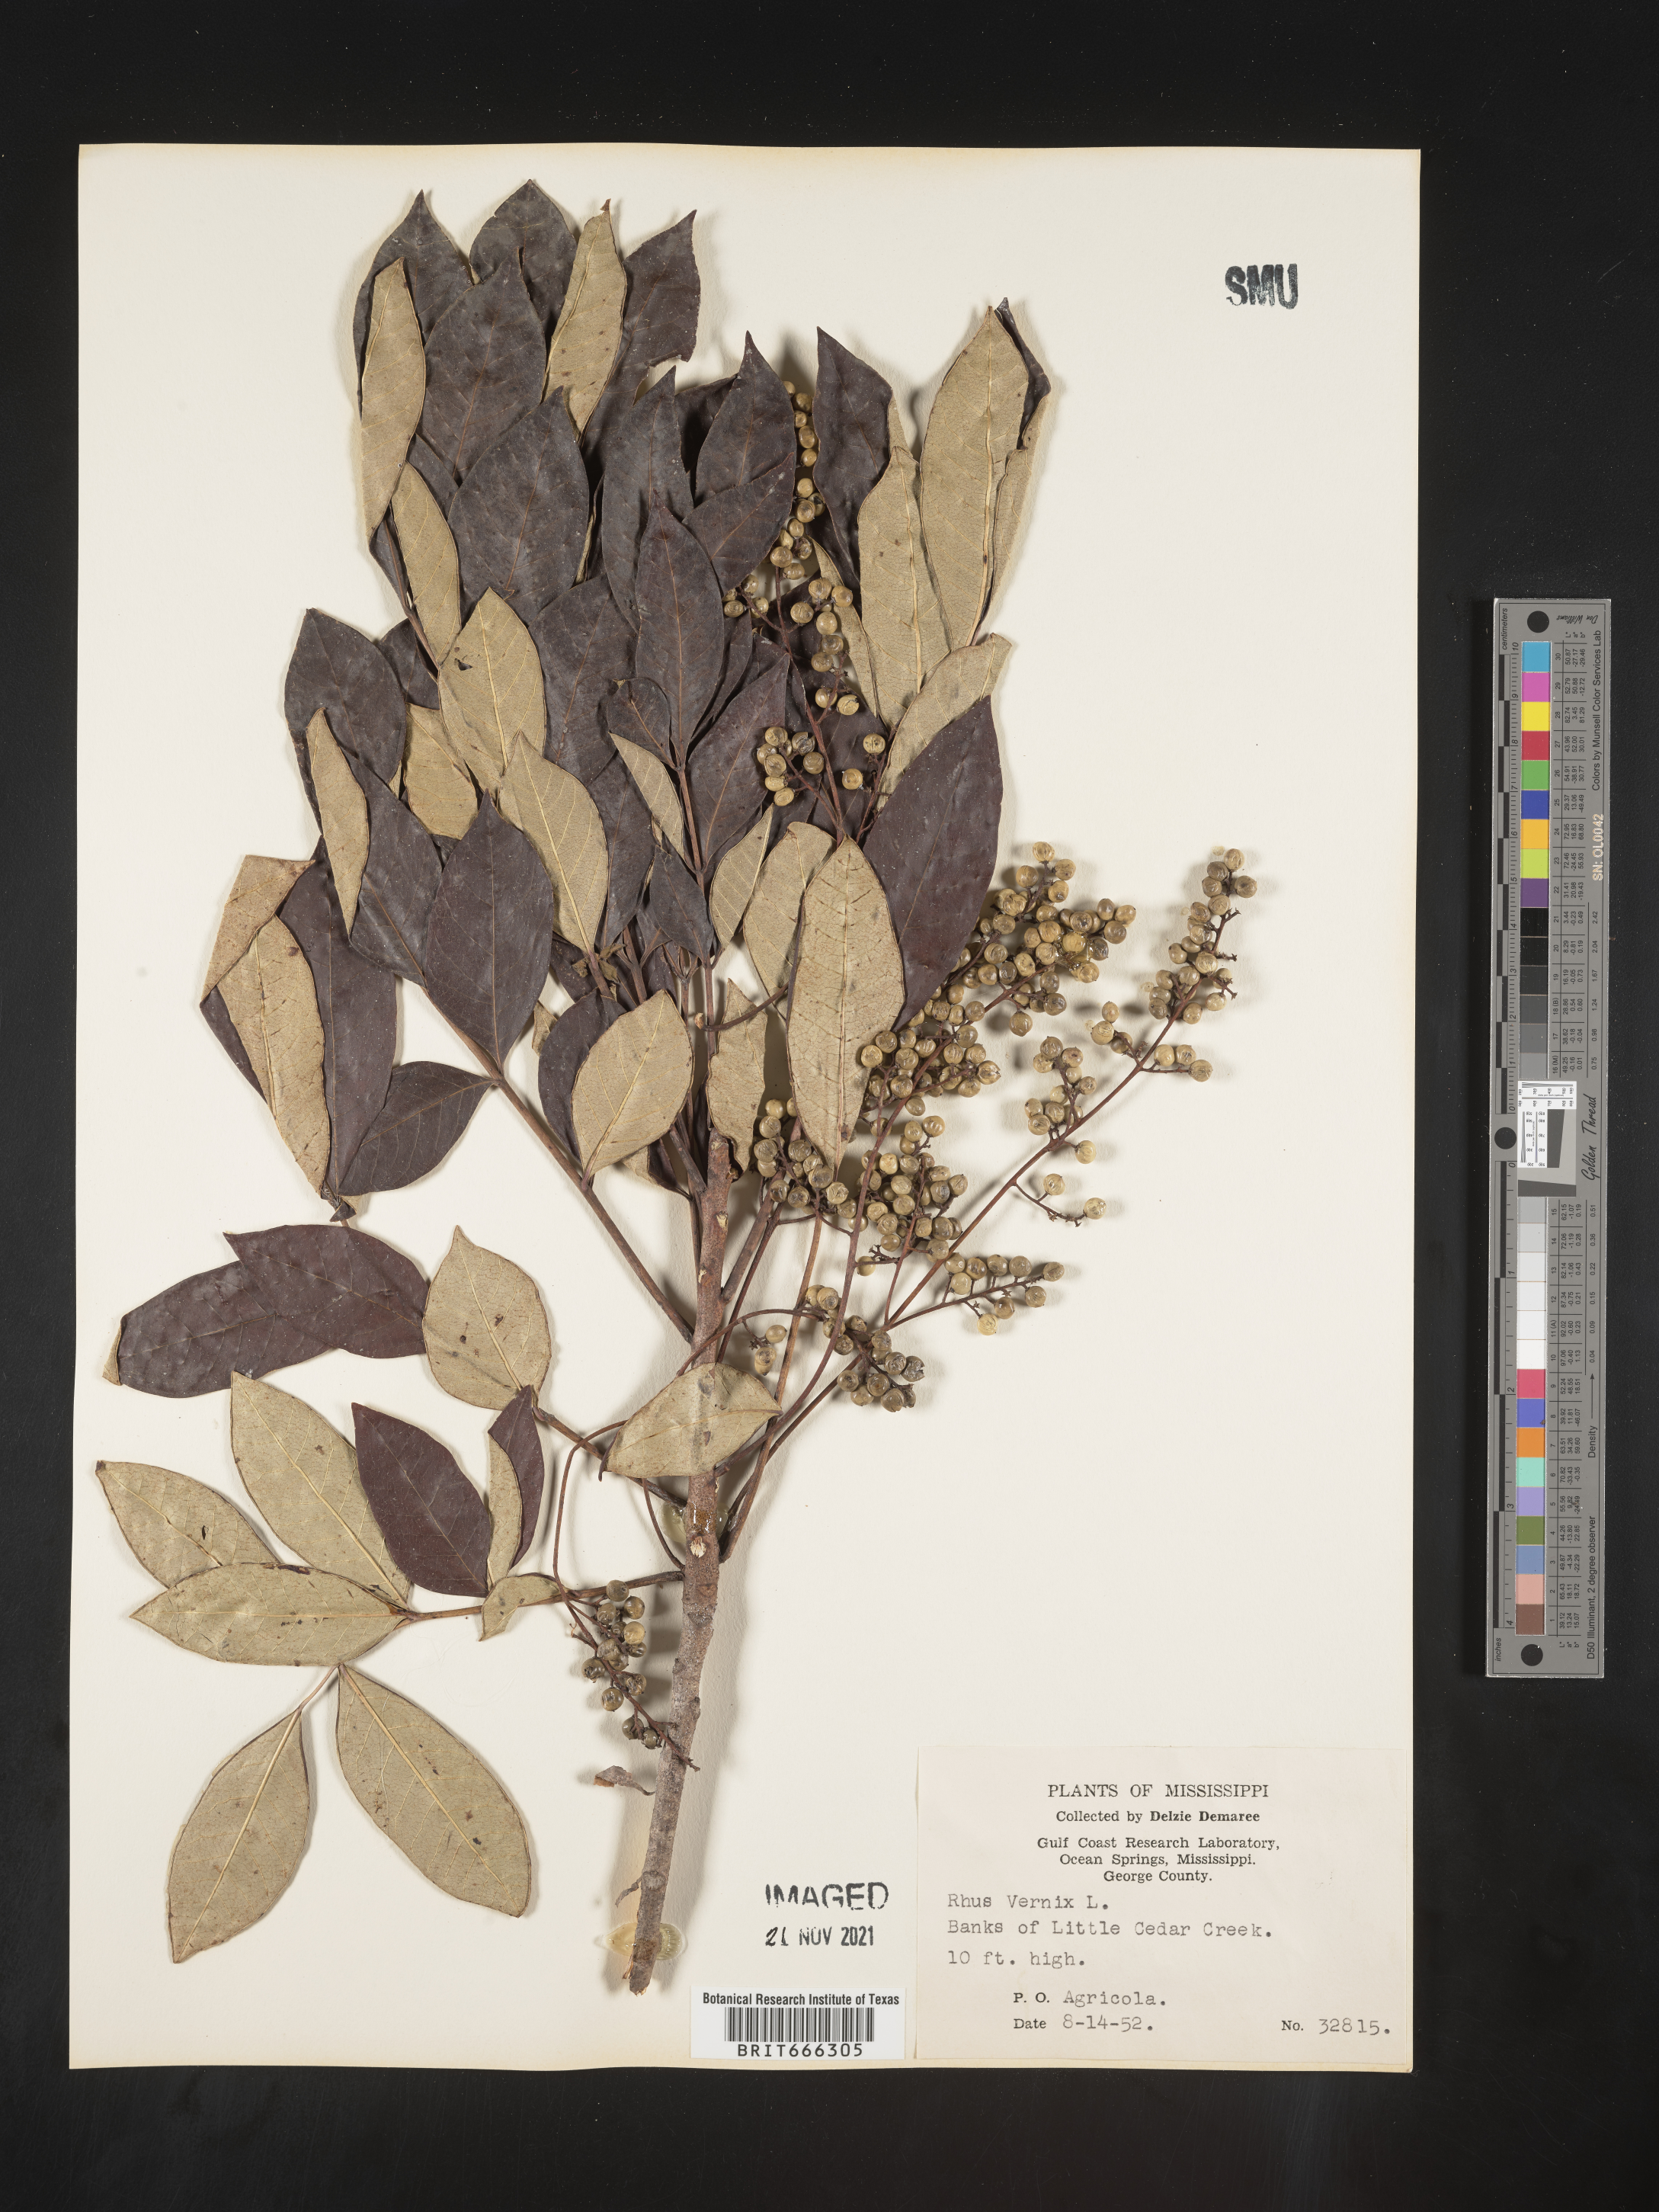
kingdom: Plantae
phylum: Tracheophyta
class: Magnoliopsida
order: Sapindales
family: Anacardiaceae
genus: Toxicodendron
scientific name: Toxicodendron vernix
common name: Poison sumac
